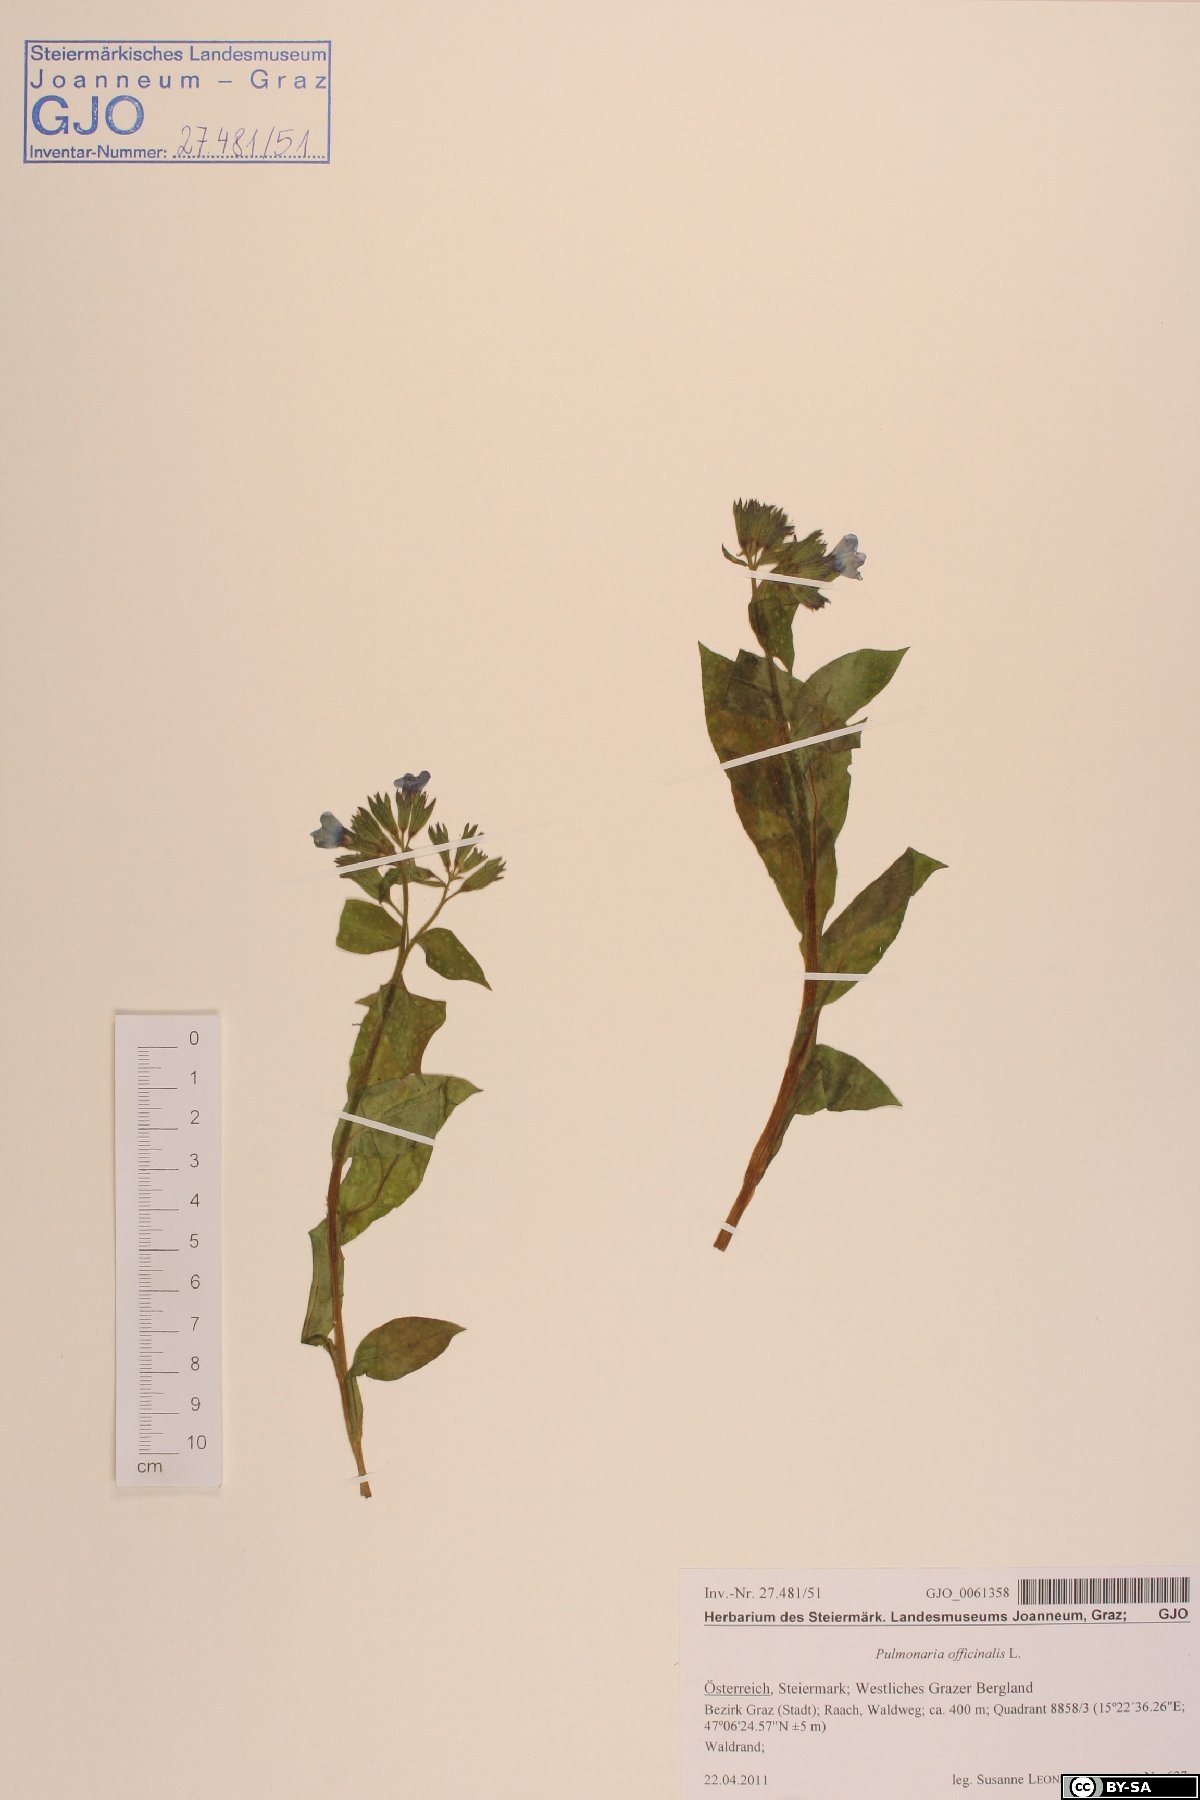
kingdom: Plantae
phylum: Tracheophyta
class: Magnoliopsida
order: Boraginales
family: Boraginaceae
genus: Pulmonaria
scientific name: Pulmonaria officinalis
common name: Lungwort
